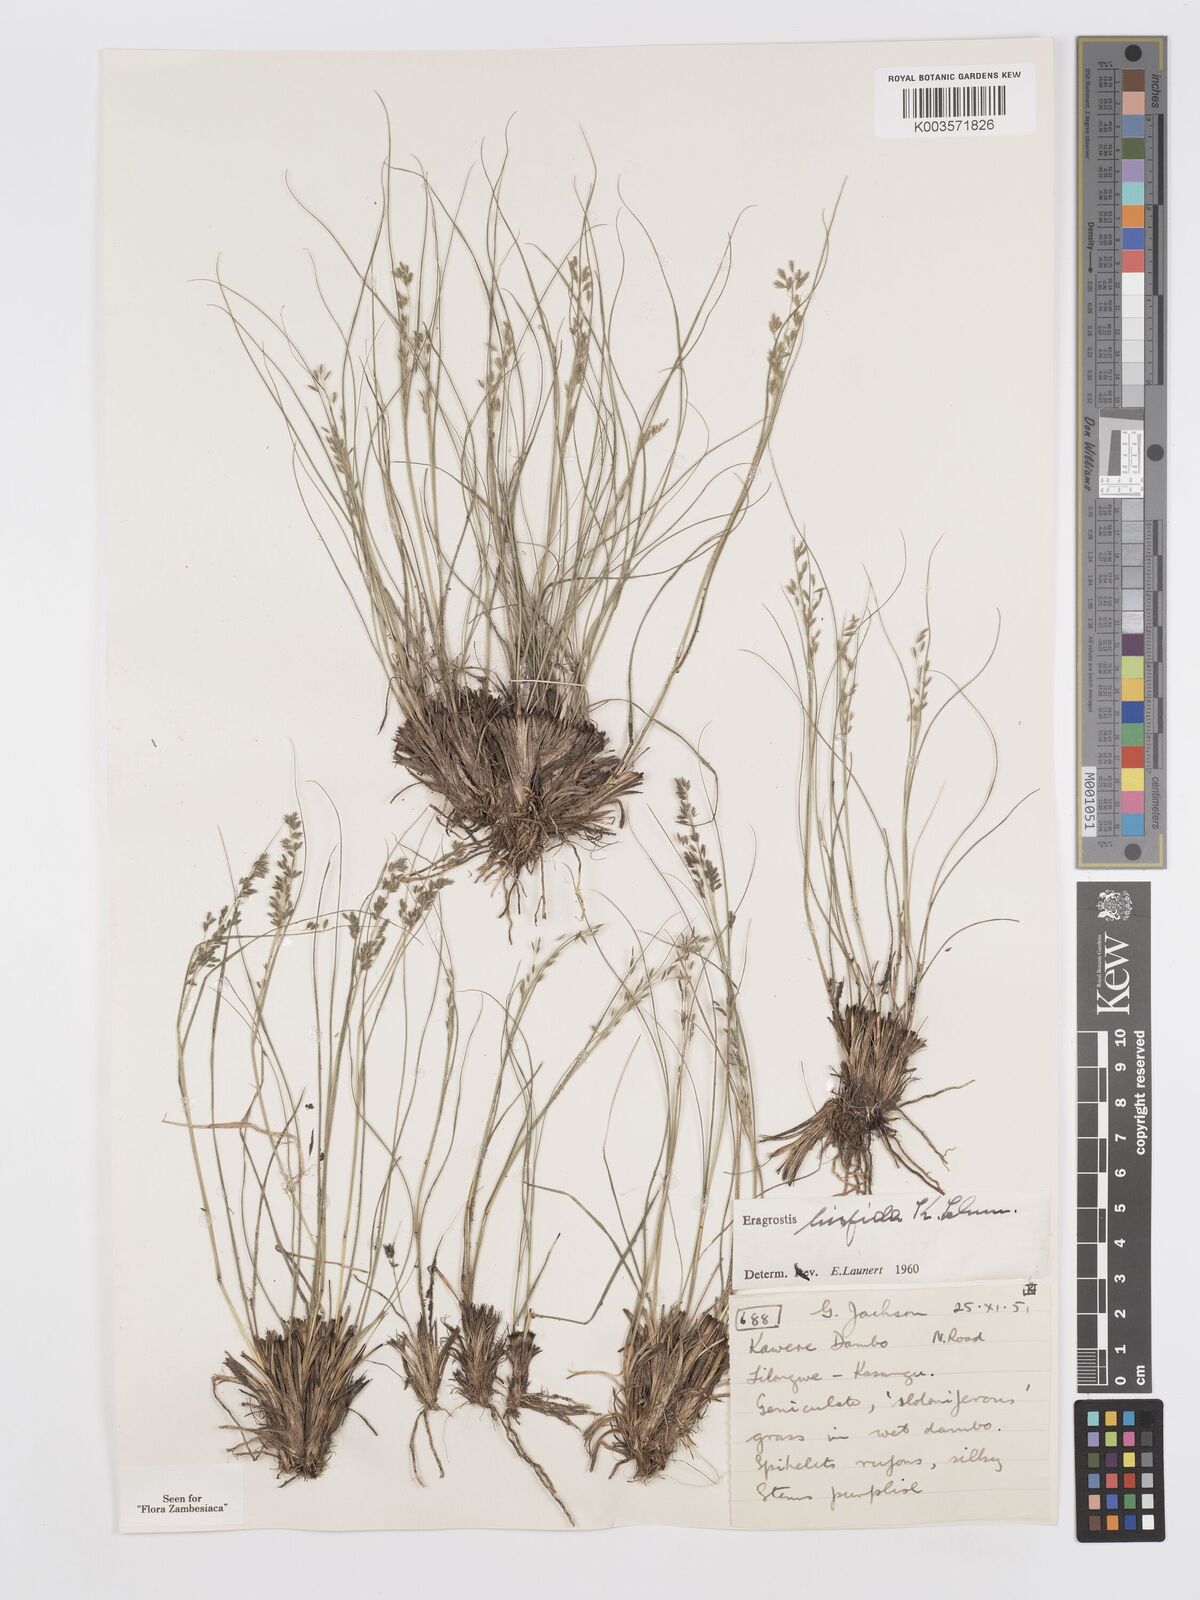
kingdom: Plantae
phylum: Tracheophyta
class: Liliopsida
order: Poales
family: Poaceae
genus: Eragrostis
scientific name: Eragrostis hispida
